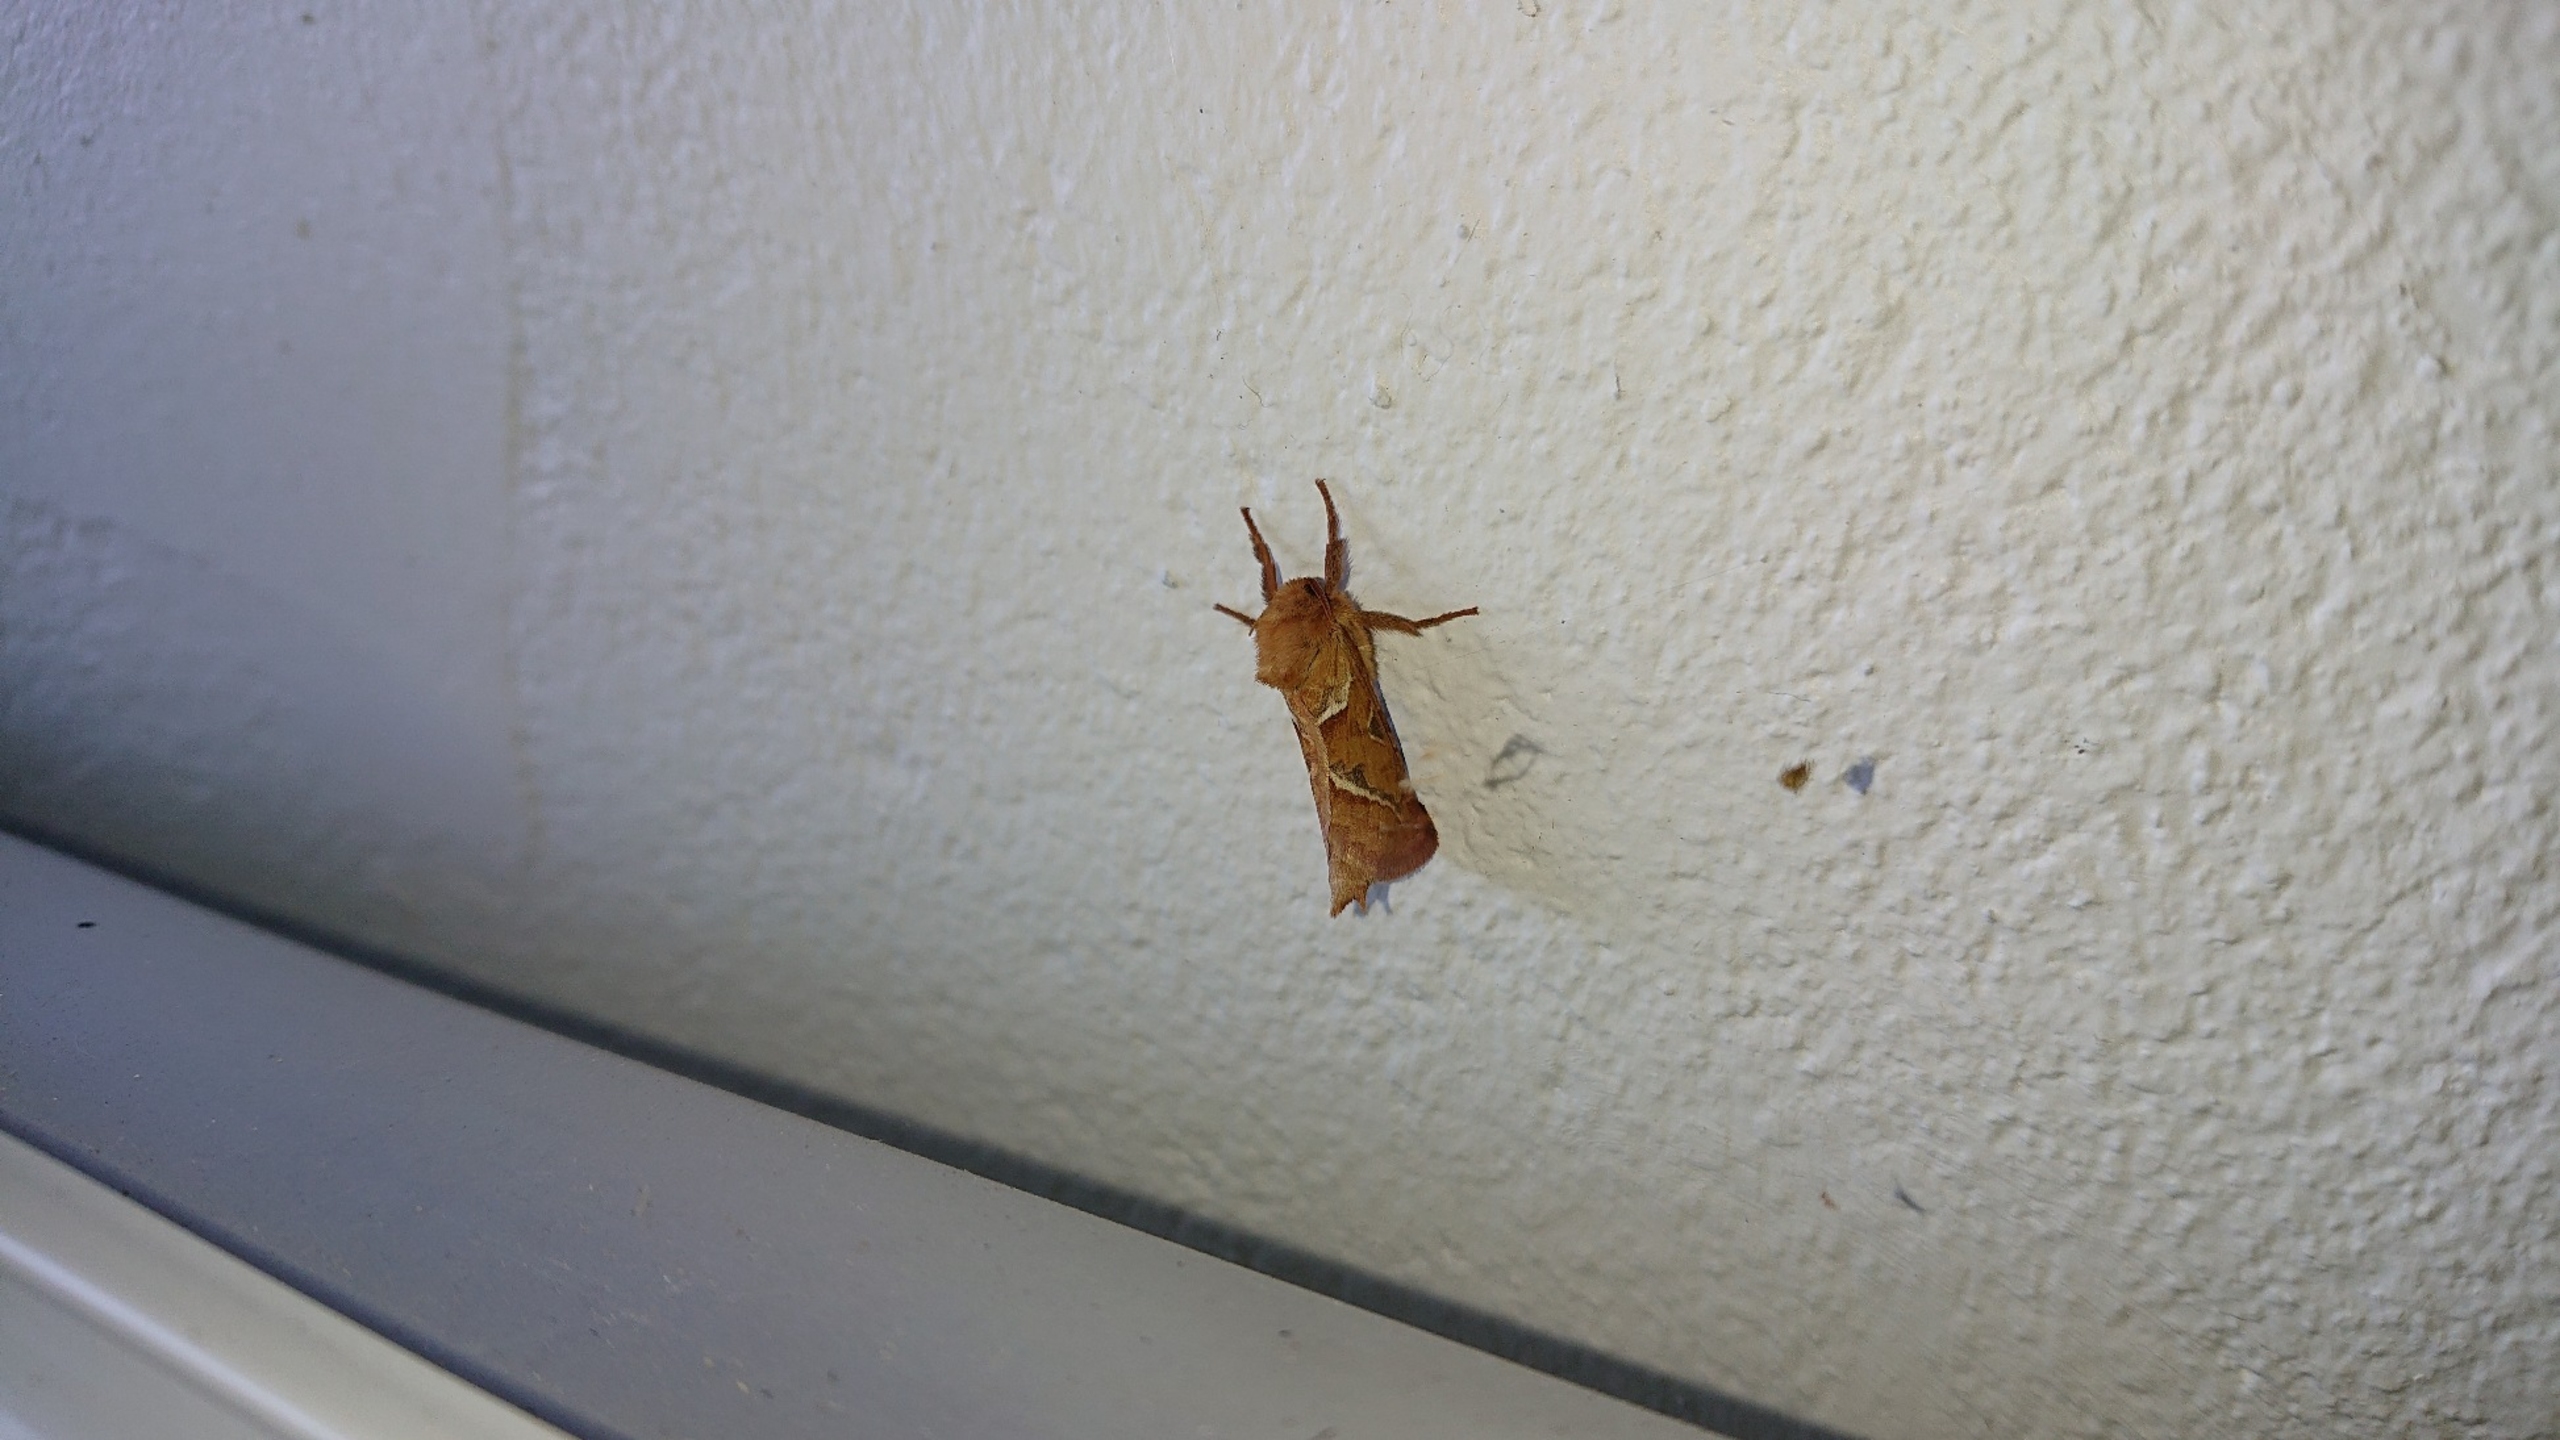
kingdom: Animalia
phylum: Arthropoda
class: Insecta
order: Lepidoptera
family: Hepialidae
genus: Triodia
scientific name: Triodia sylvina
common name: Skræpperodæder
